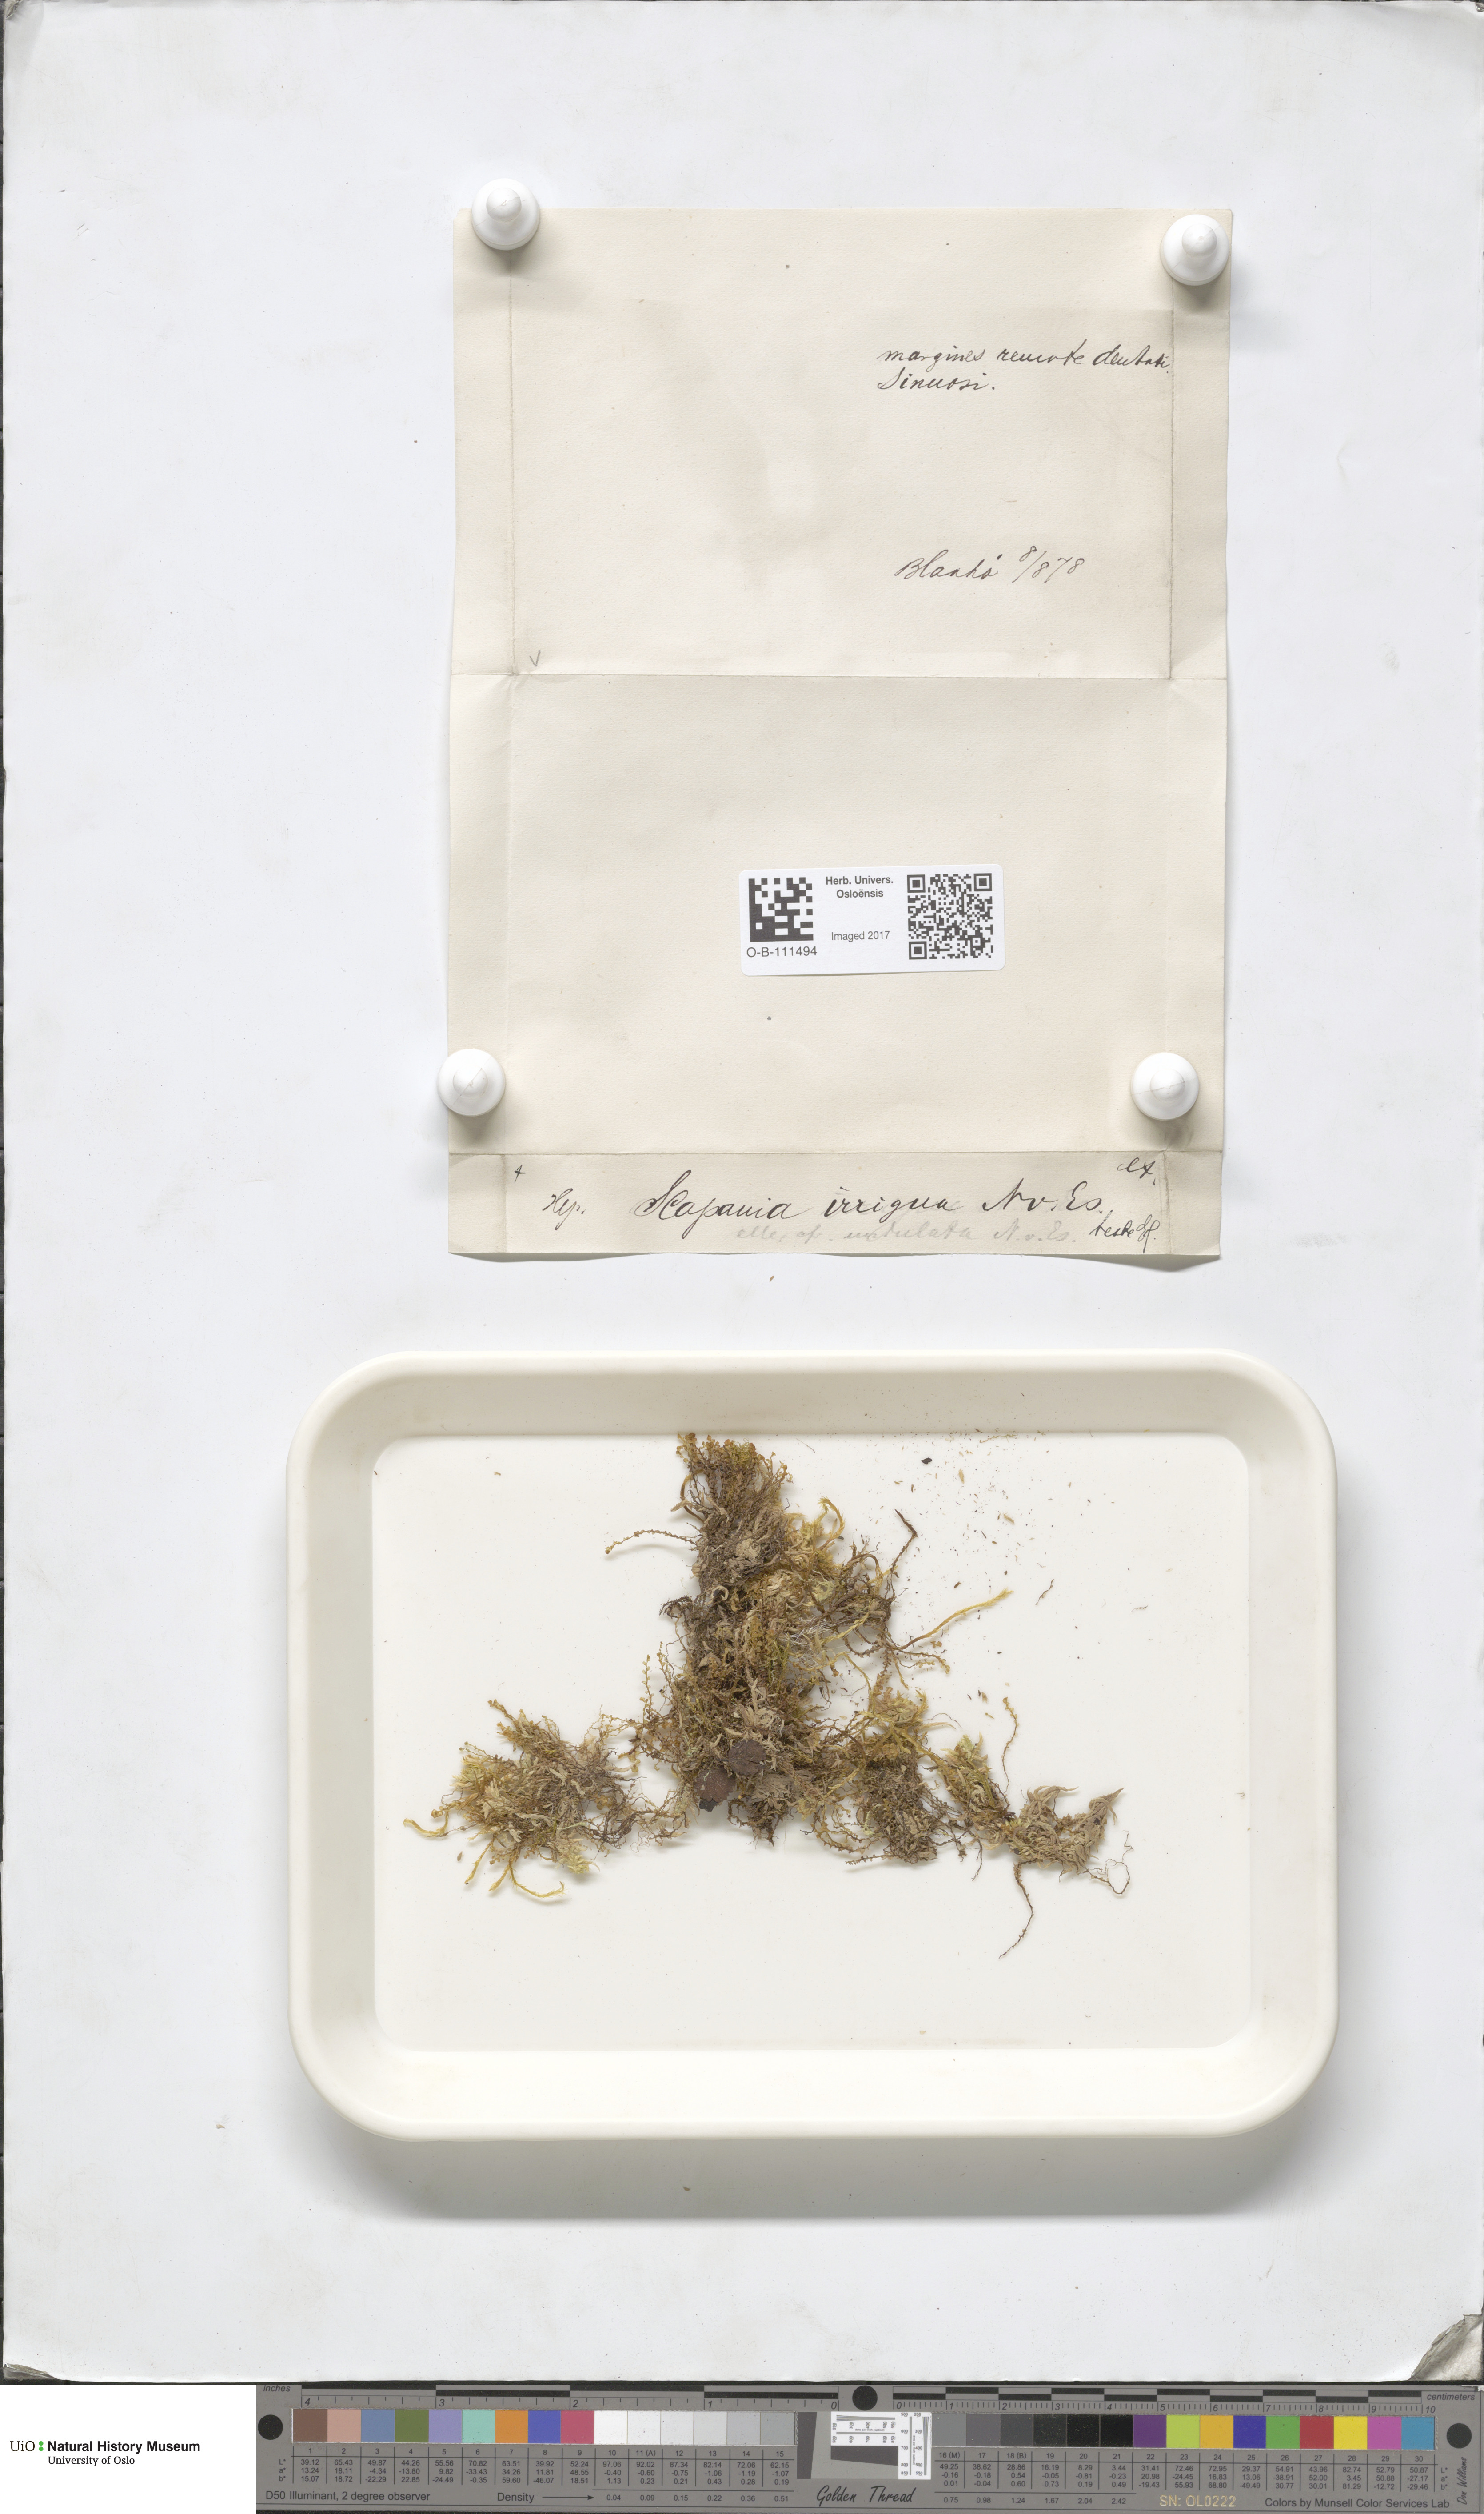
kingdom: Plantae
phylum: Marchantiophyta
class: Jungermanniopsida
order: Jungermanniales
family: Scapaniaceae
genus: Scapania
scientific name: Scapania irrigua
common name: Heath earwort
